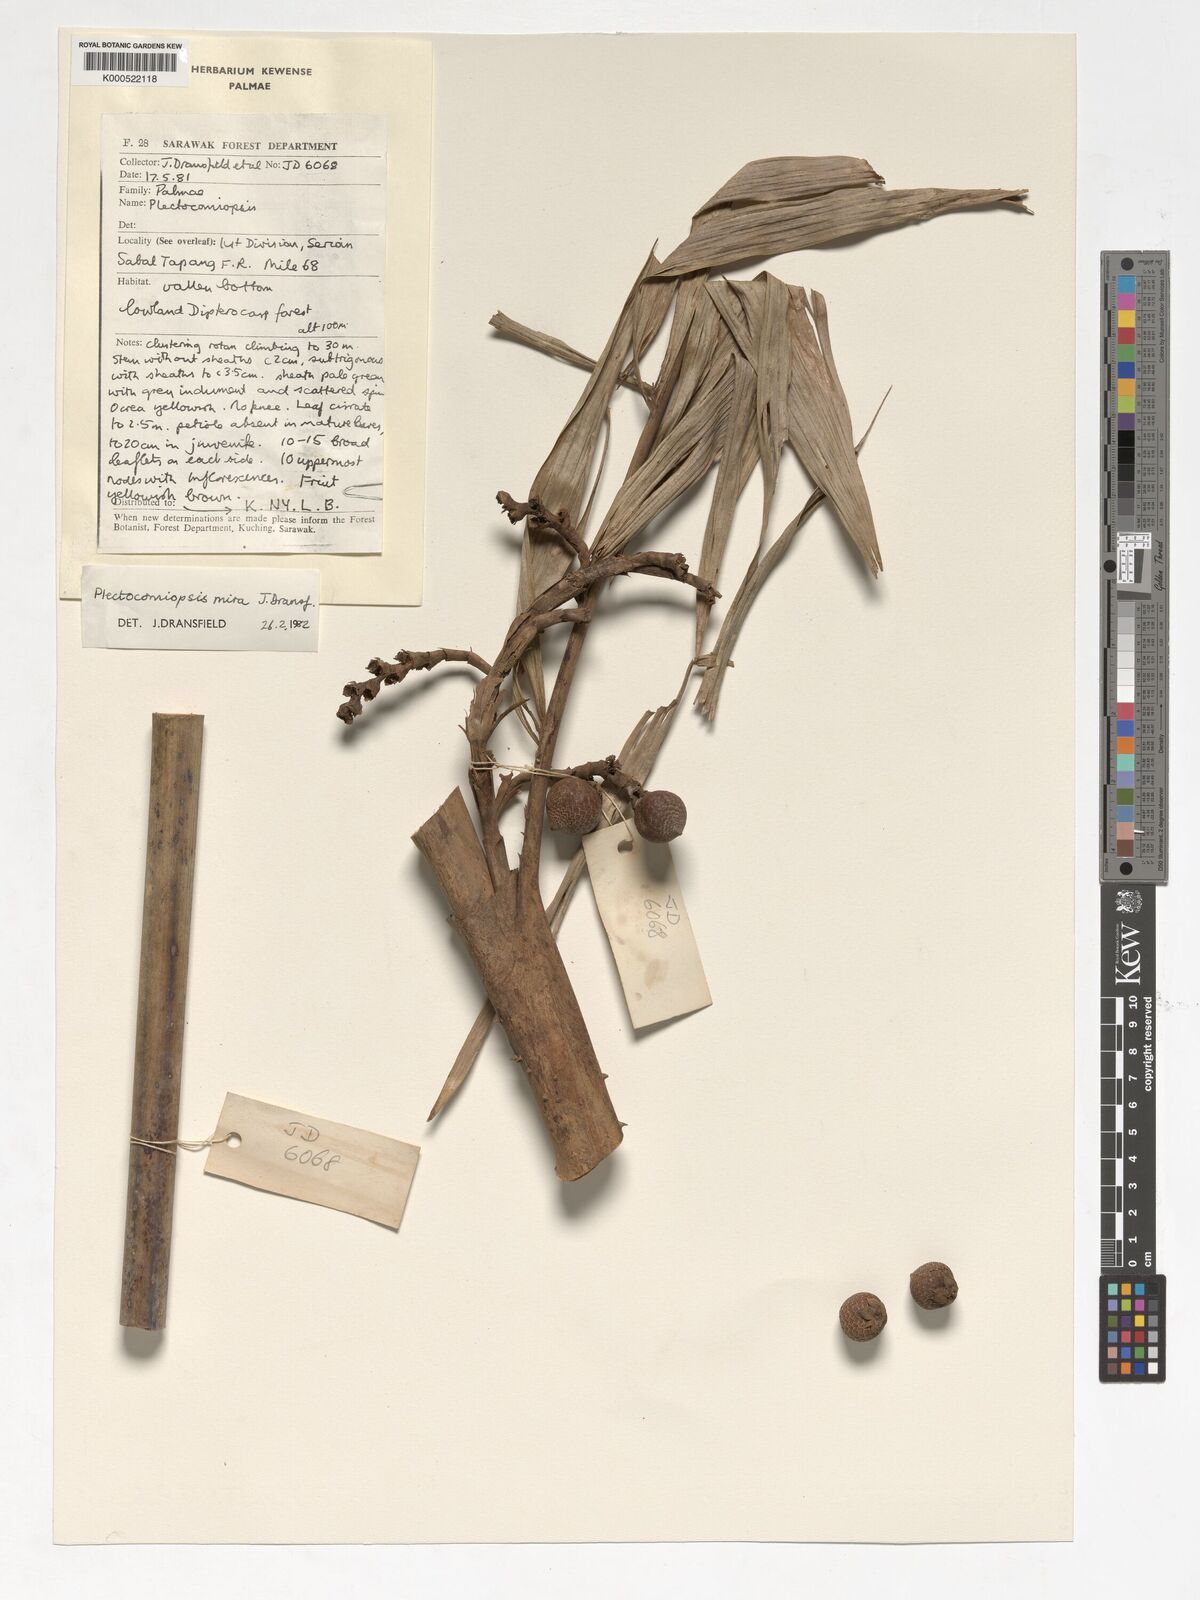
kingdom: Plantae
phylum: Tracheophyta
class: Liliopsida
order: Arecales
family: Arecaceae
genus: Plectocomiopsis
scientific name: Plectocomiopsis mira
